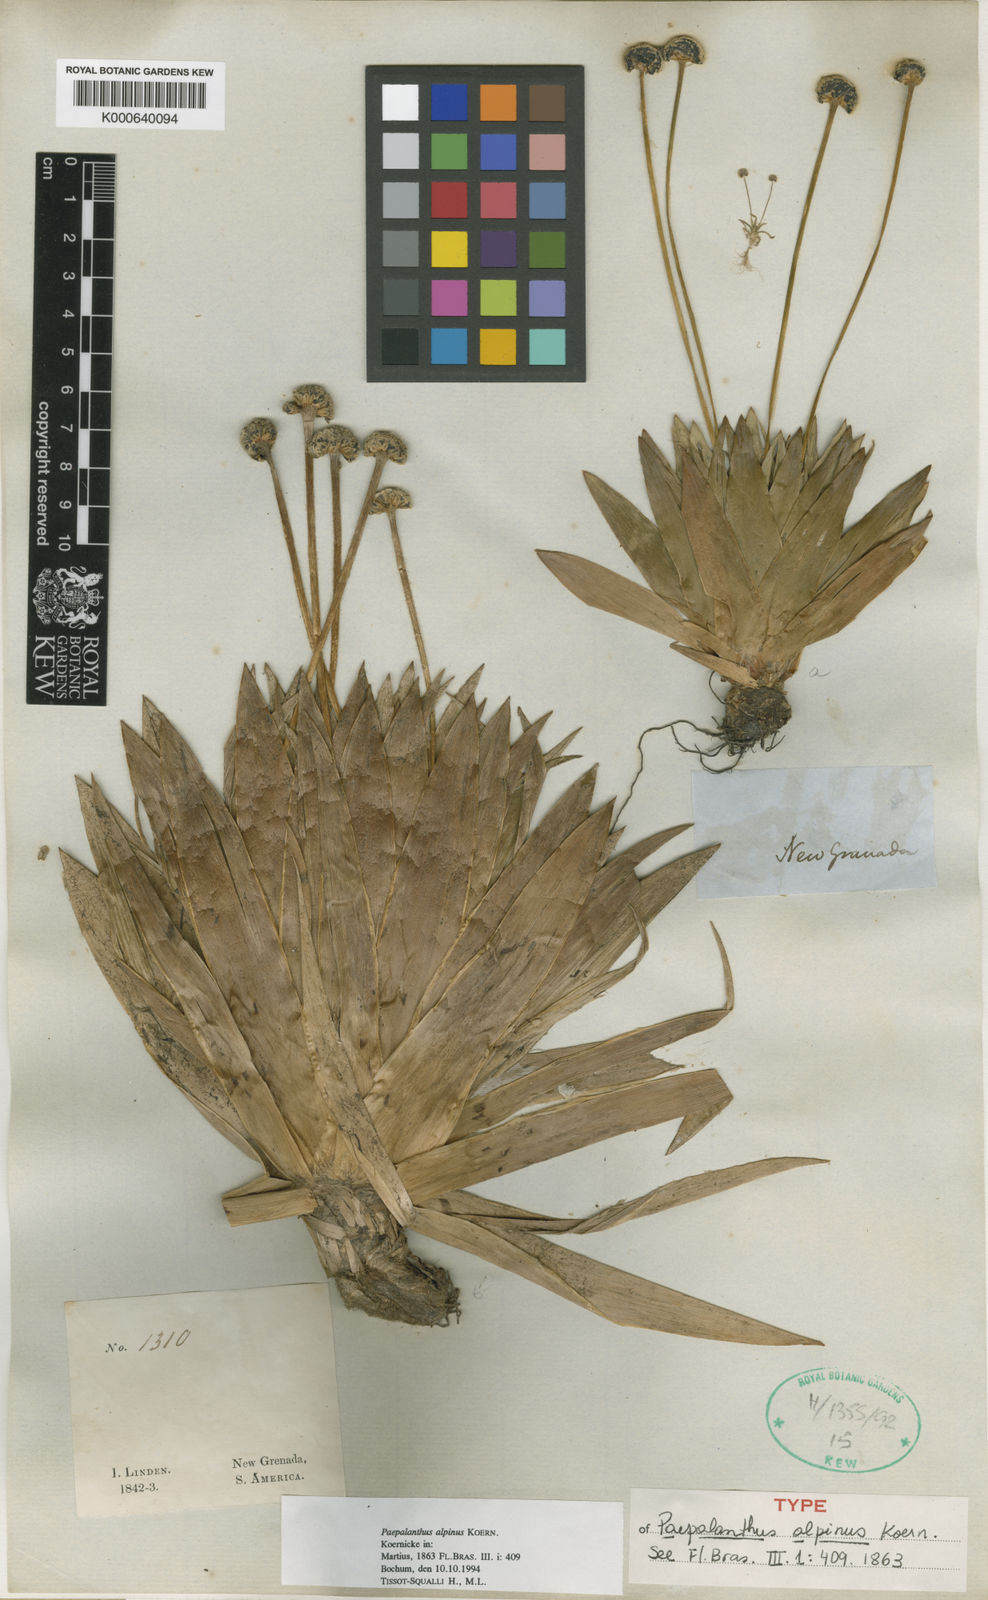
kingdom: Plantae
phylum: Tracheophyta
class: Liliopsida
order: Poales
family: Eriocaulaceae
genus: Paepalanthus
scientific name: Paepalanthus
